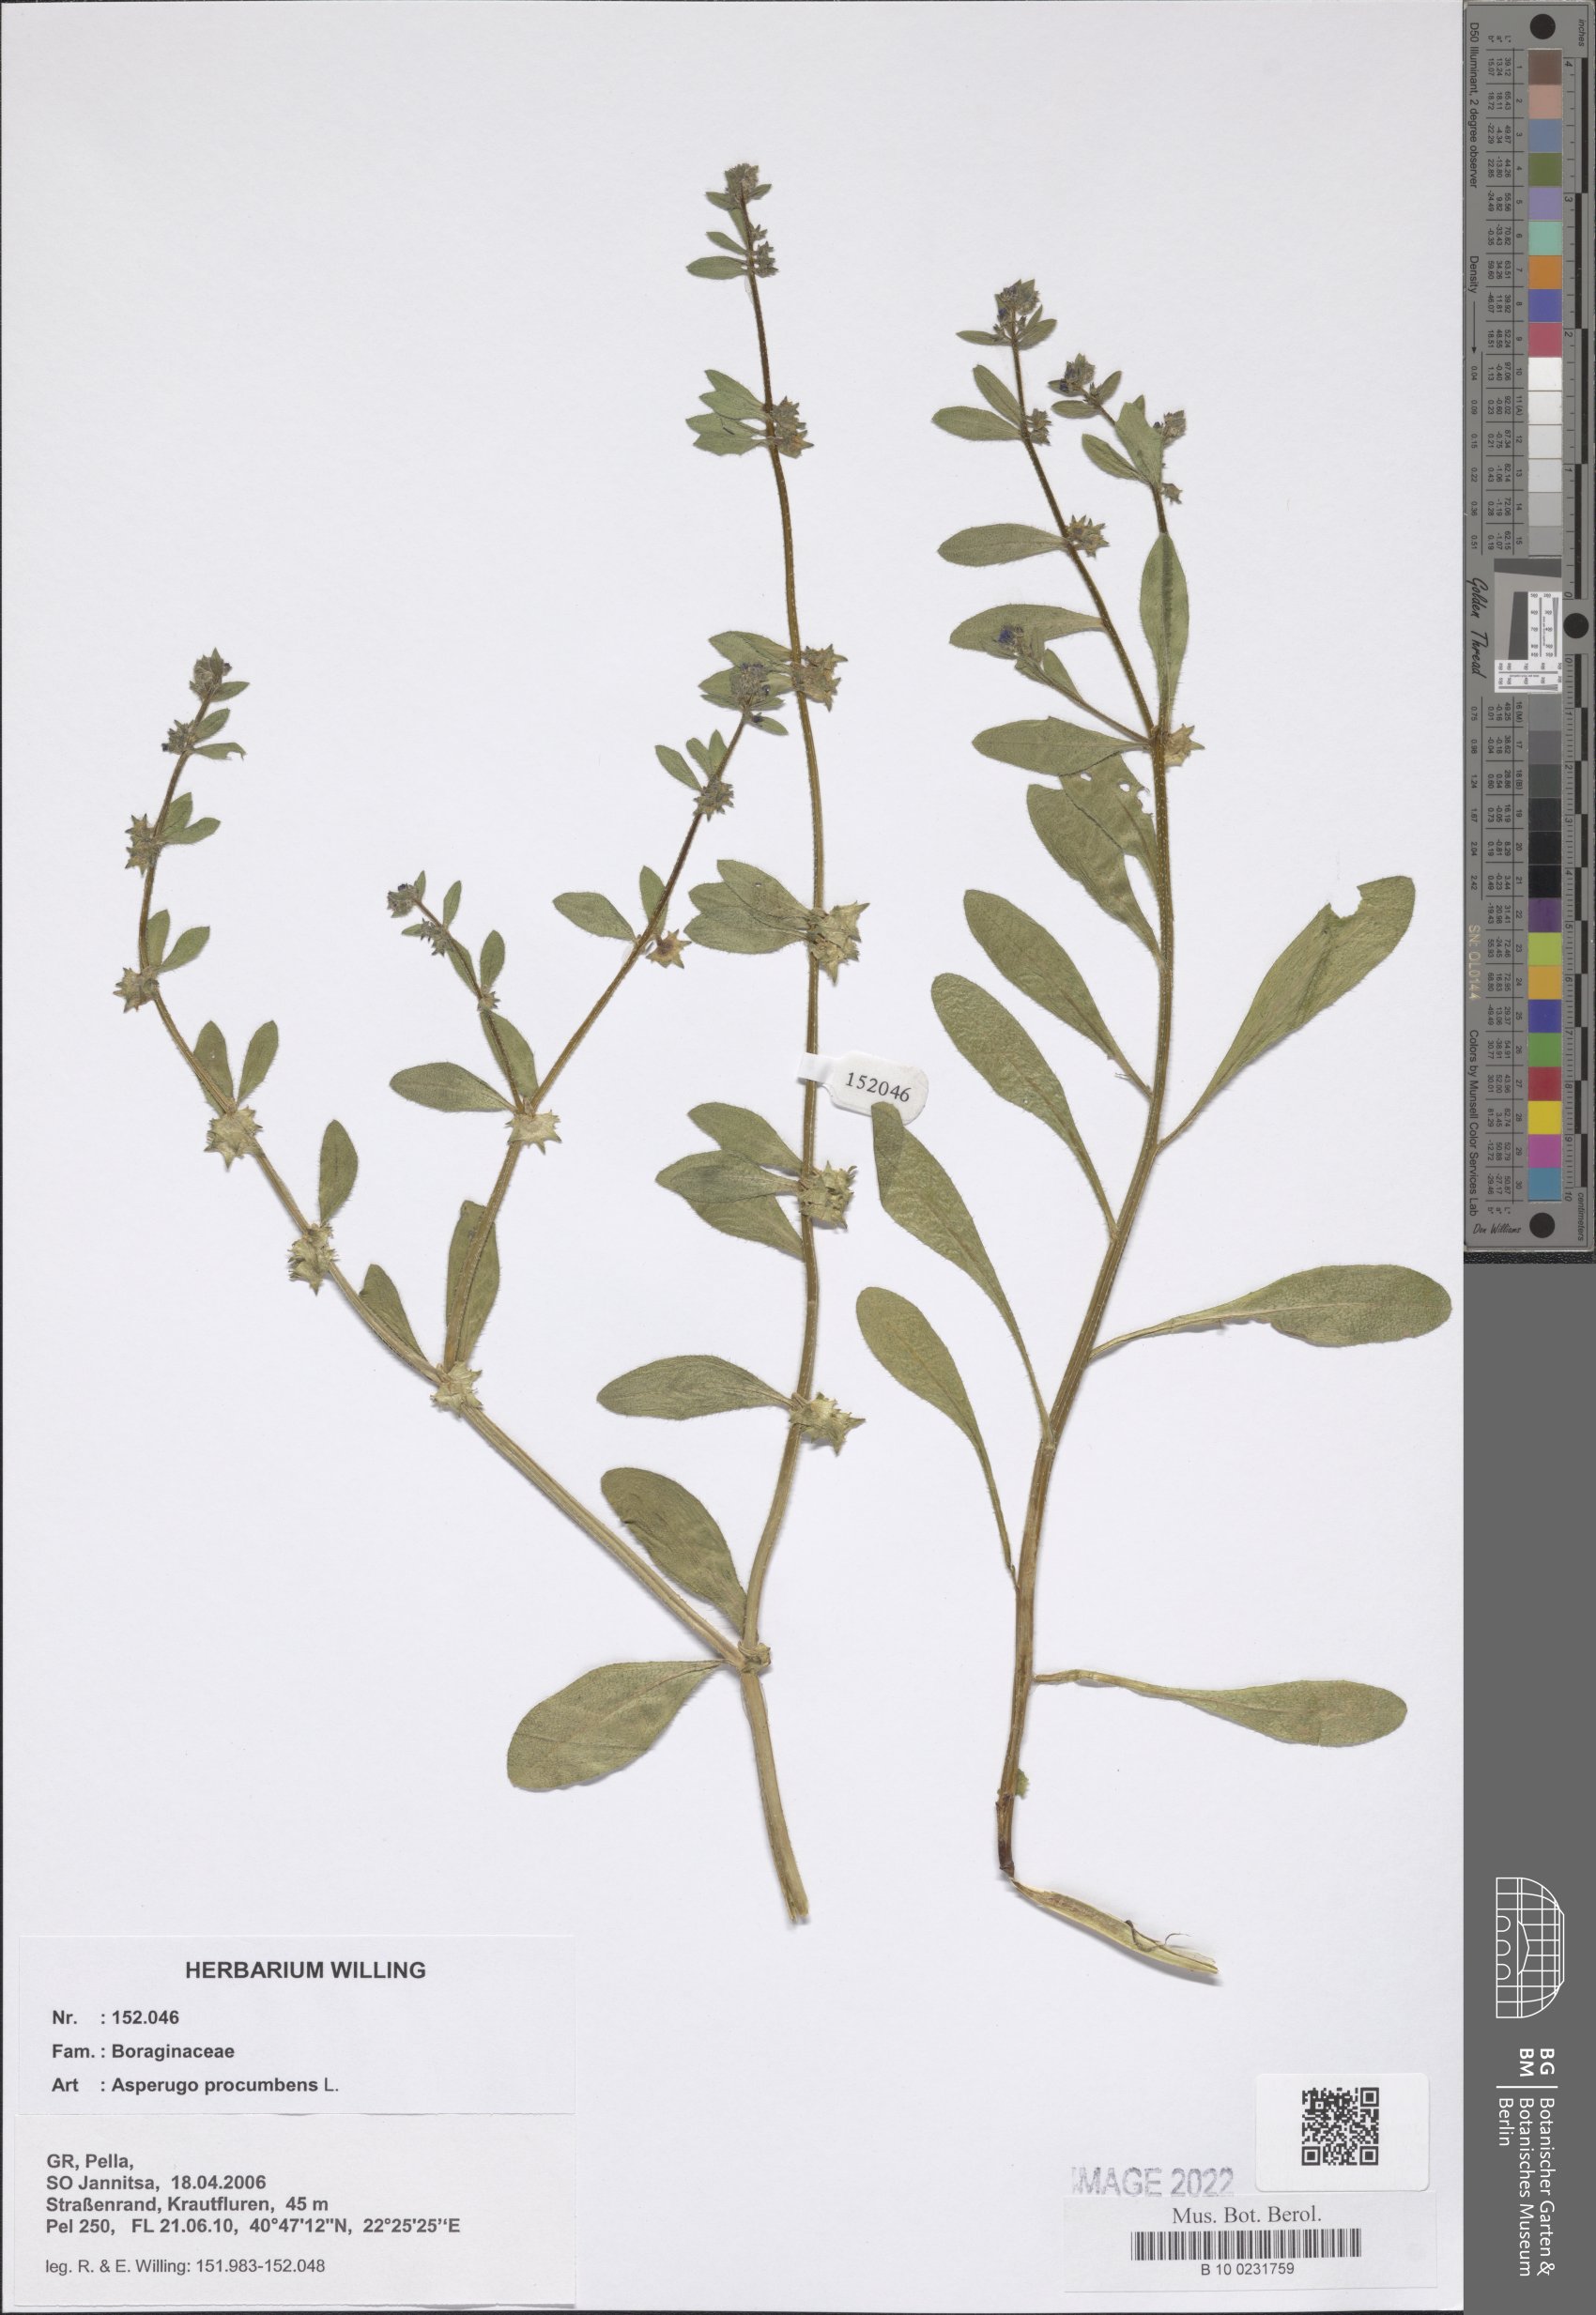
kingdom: Plantae
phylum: Tracheophyta
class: Magnoliopsida
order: Boraginales
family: Boraginaceae
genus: Asperugo
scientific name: Asperugo procumbens
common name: Madwort
